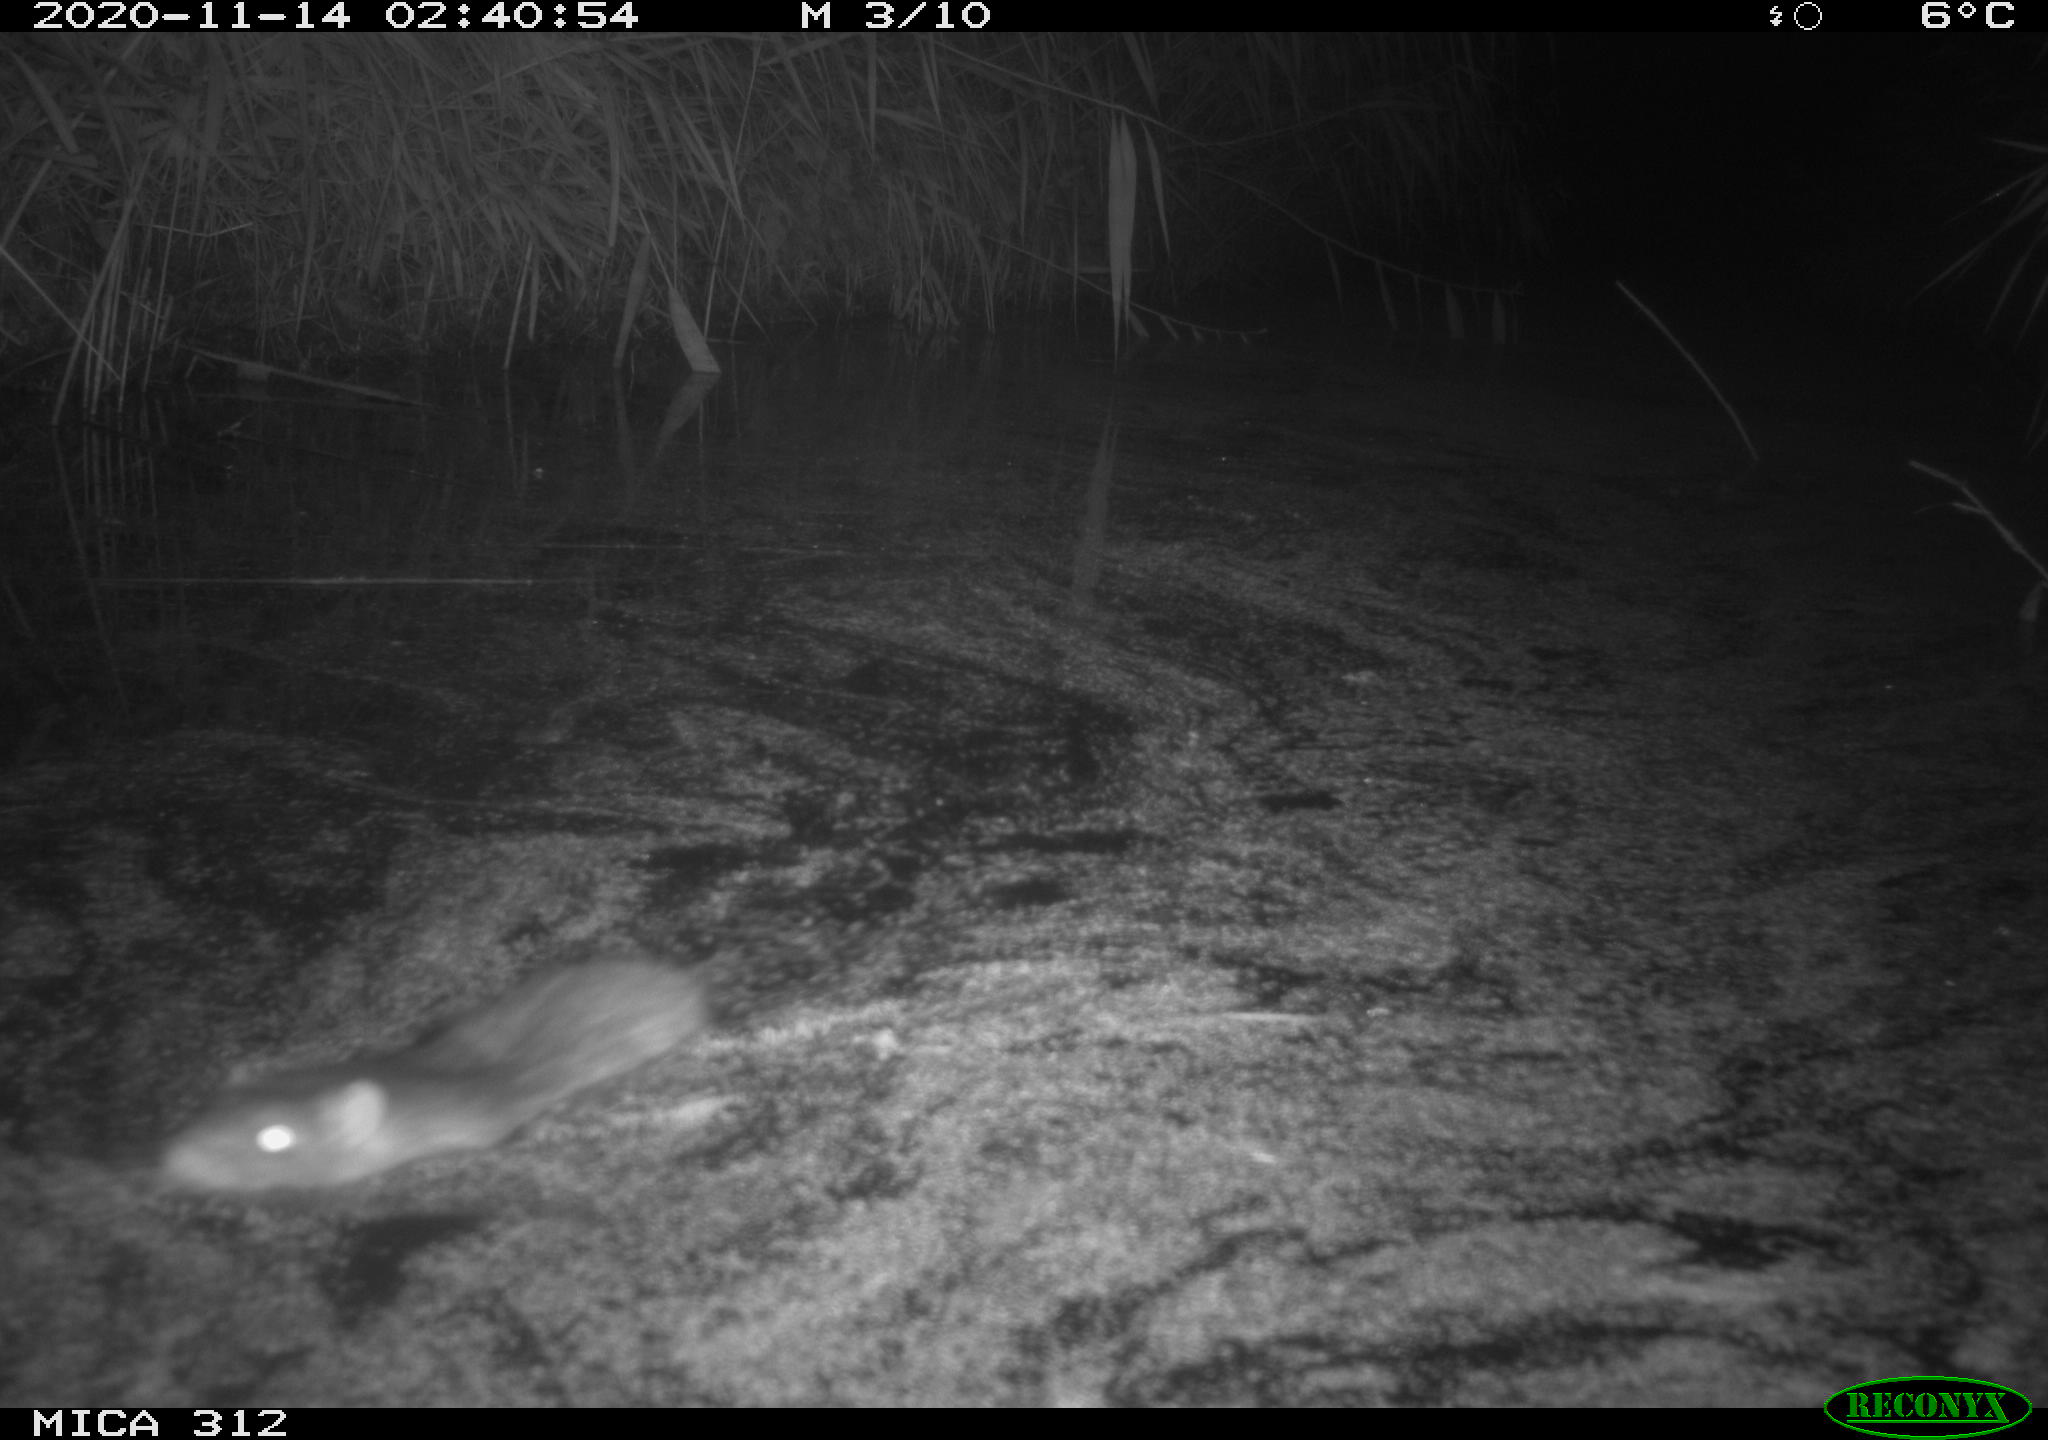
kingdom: Animalia
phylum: Chordata
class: Mammalia
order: Rodentia
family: Muridae
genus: Rattus
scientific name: Rattus norvegicus
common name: Brown rat
